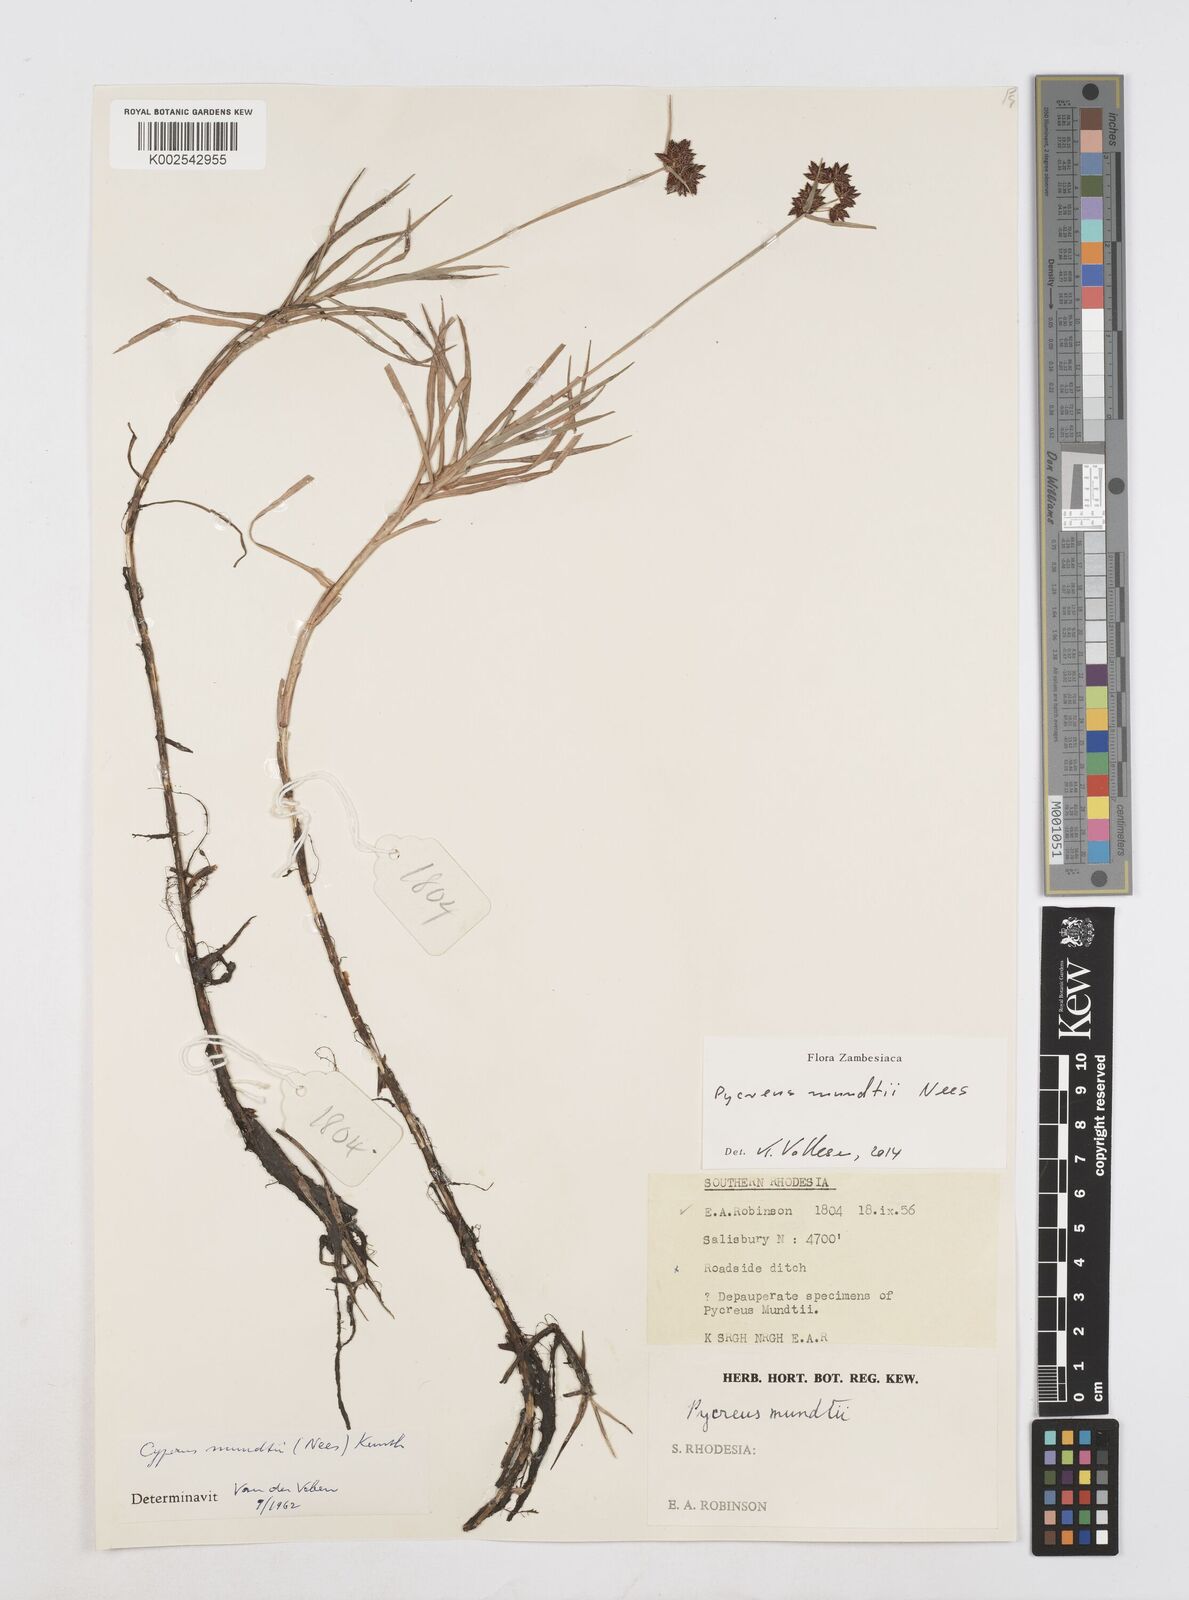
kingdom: Plantae
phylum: Tracheophyta
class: Liliopsida
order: Poales
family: Cyperaceae
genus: Cyperus
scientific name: Cyperus mundii
